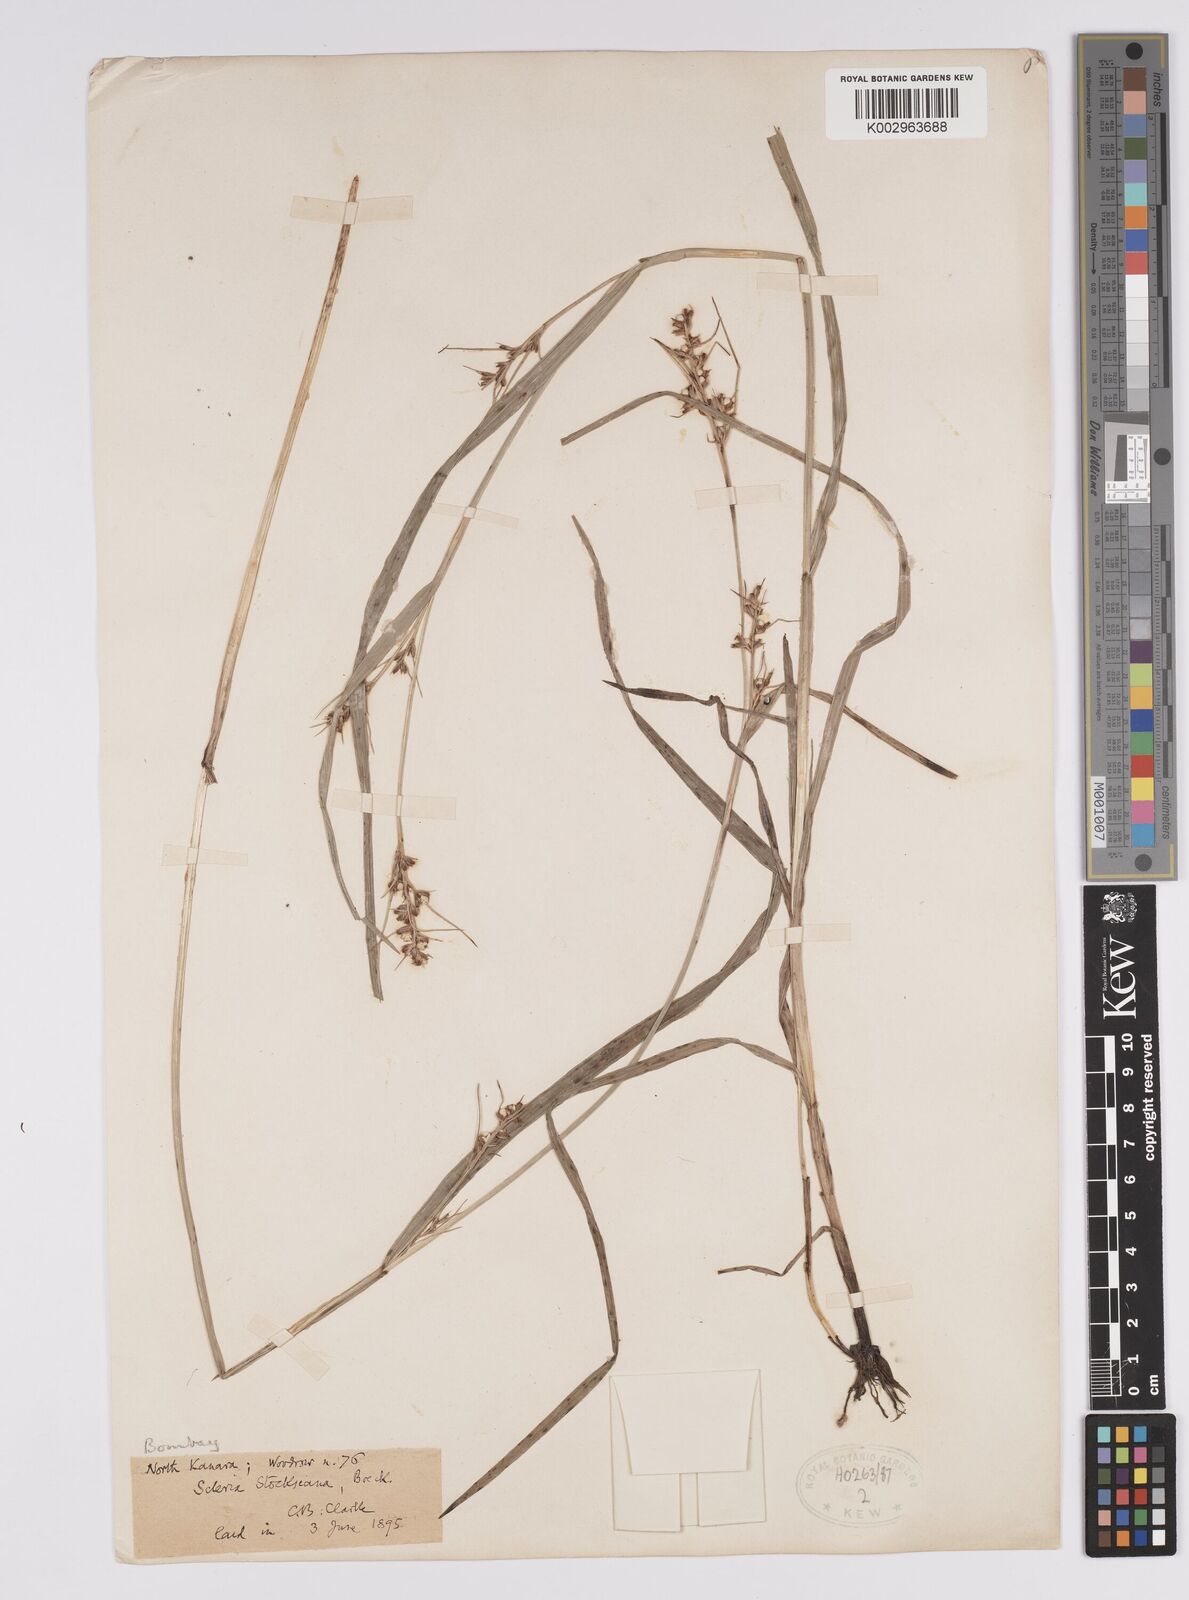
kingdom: Plantae
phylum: Tracheophyta
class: Liliopsida
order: Poales
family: Cyperaceae
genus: Scleria
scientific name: Scleria stocksiana
